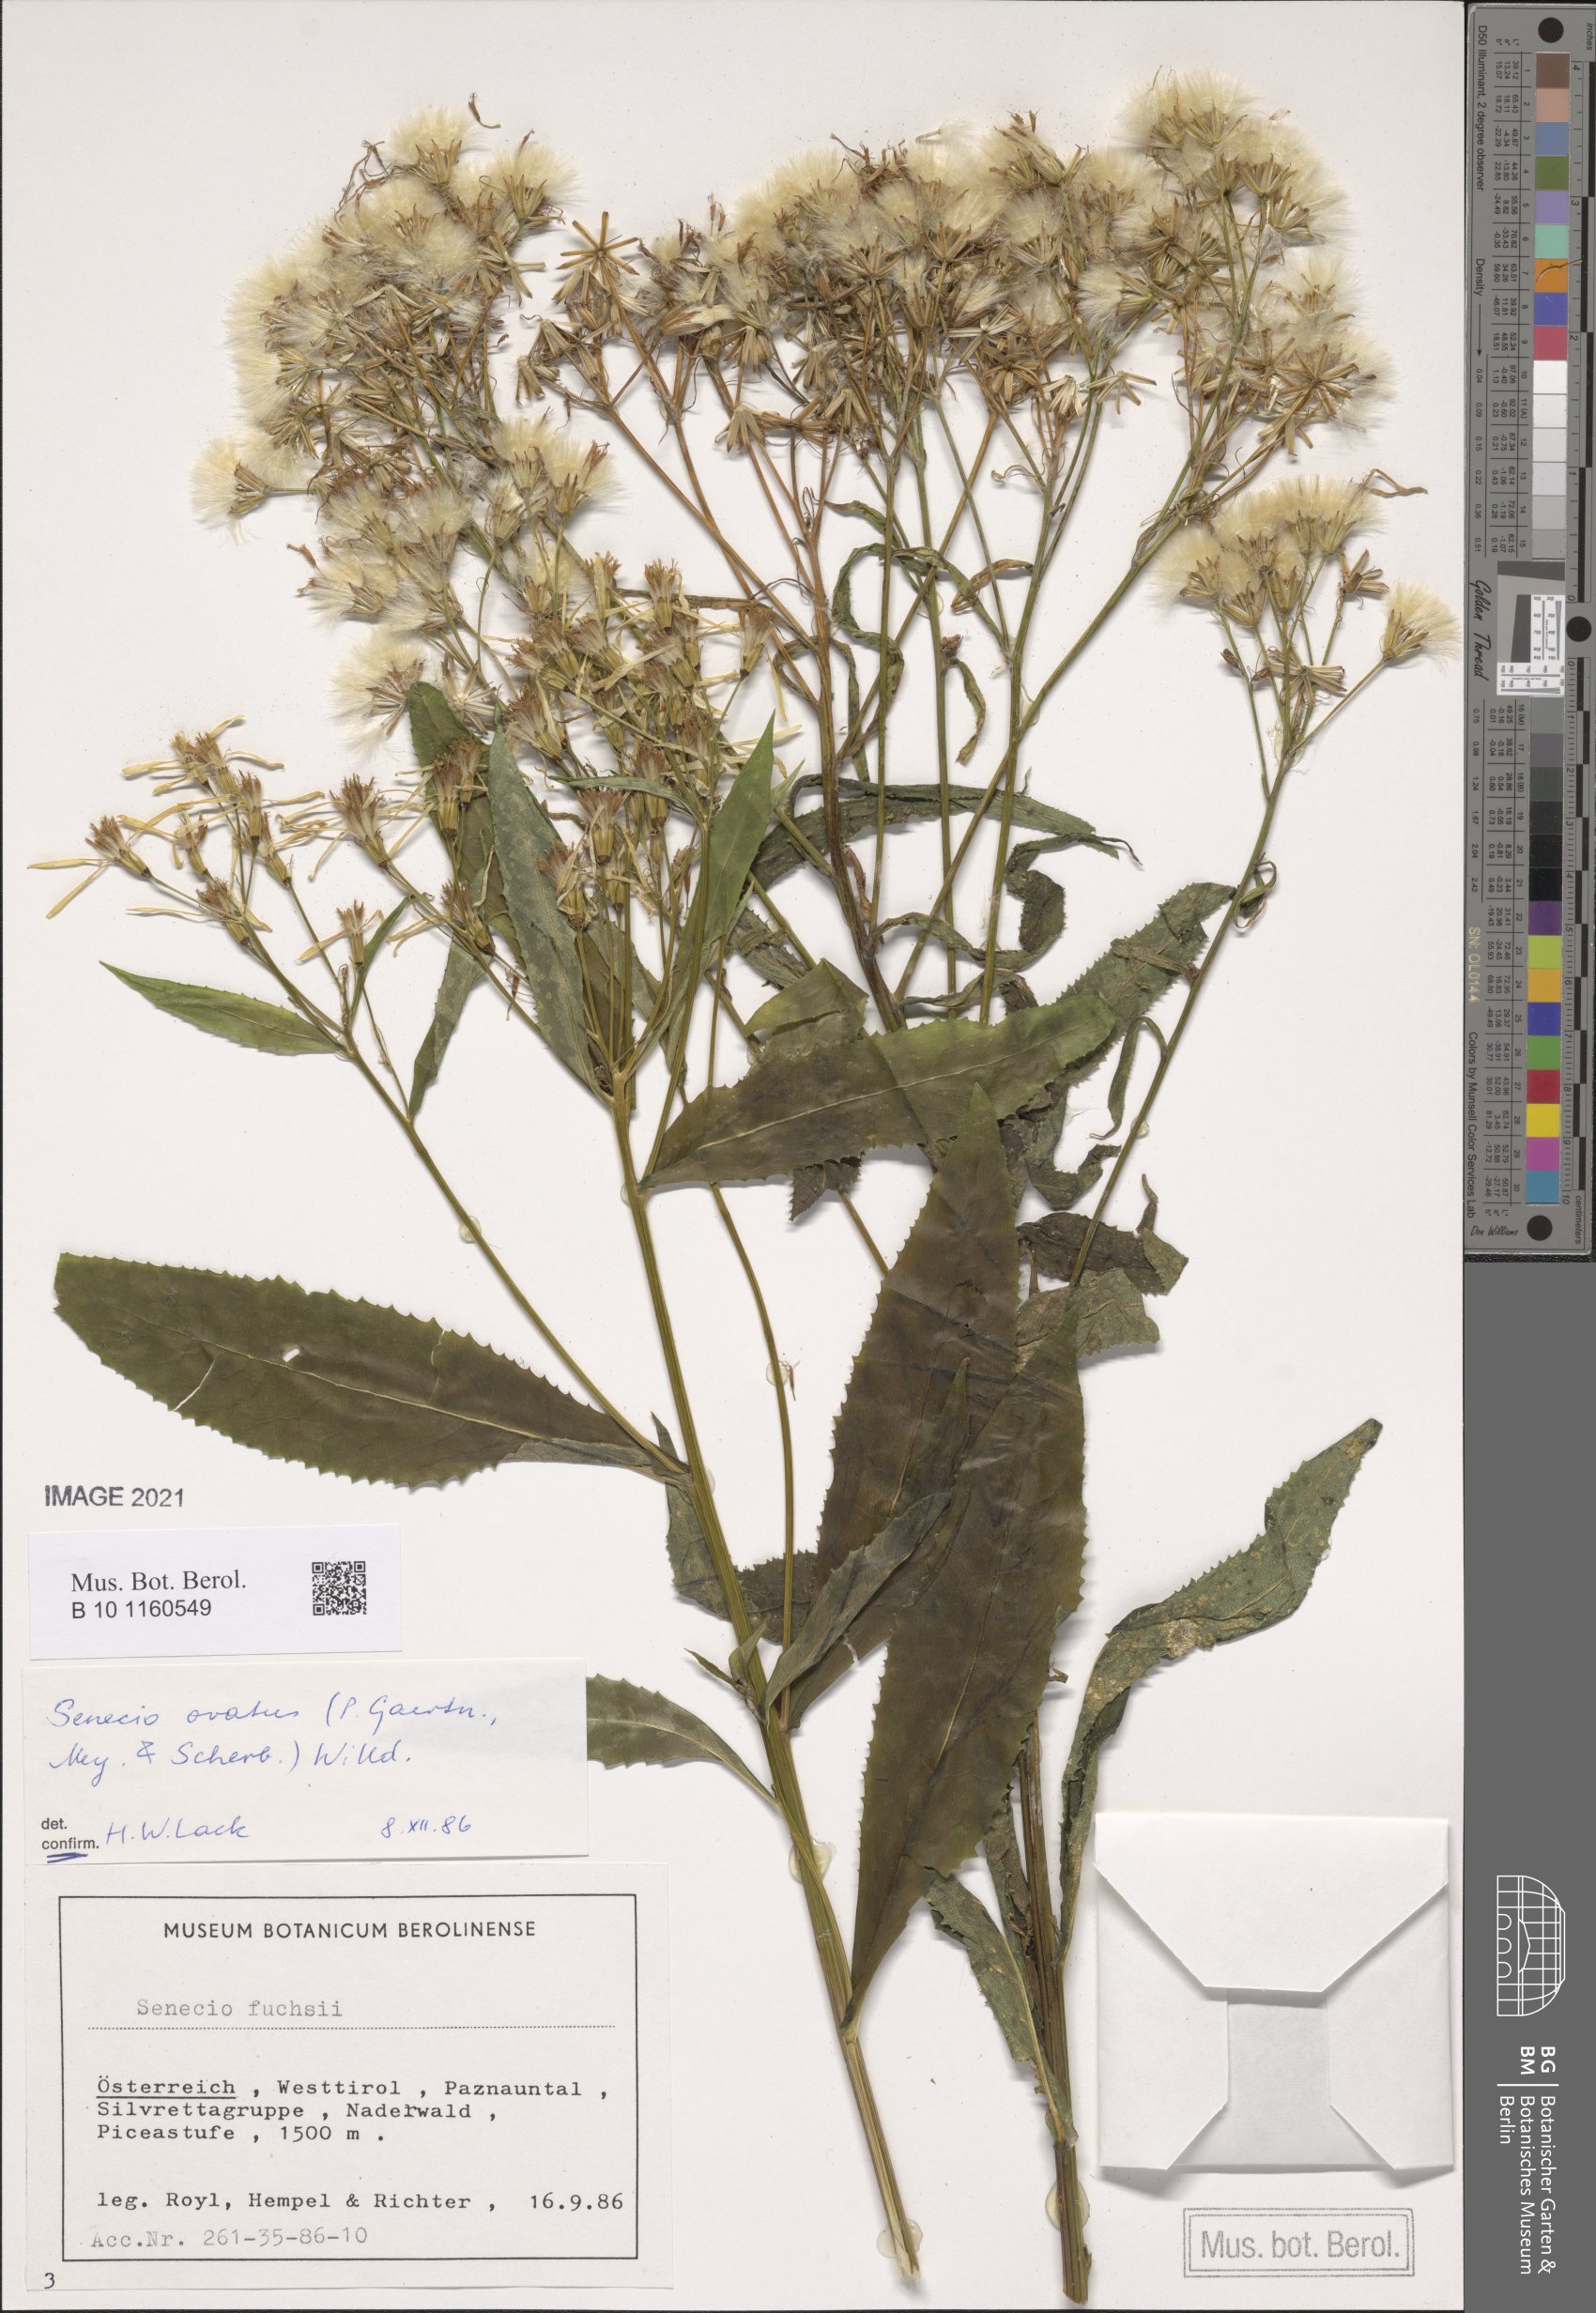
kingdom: Plantae
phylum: Tracheophyta
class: Magnoliopsida
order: Asterales
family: Asteraceae
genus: Senecio
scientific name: Senecio ovatus
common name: Wood ragwort
